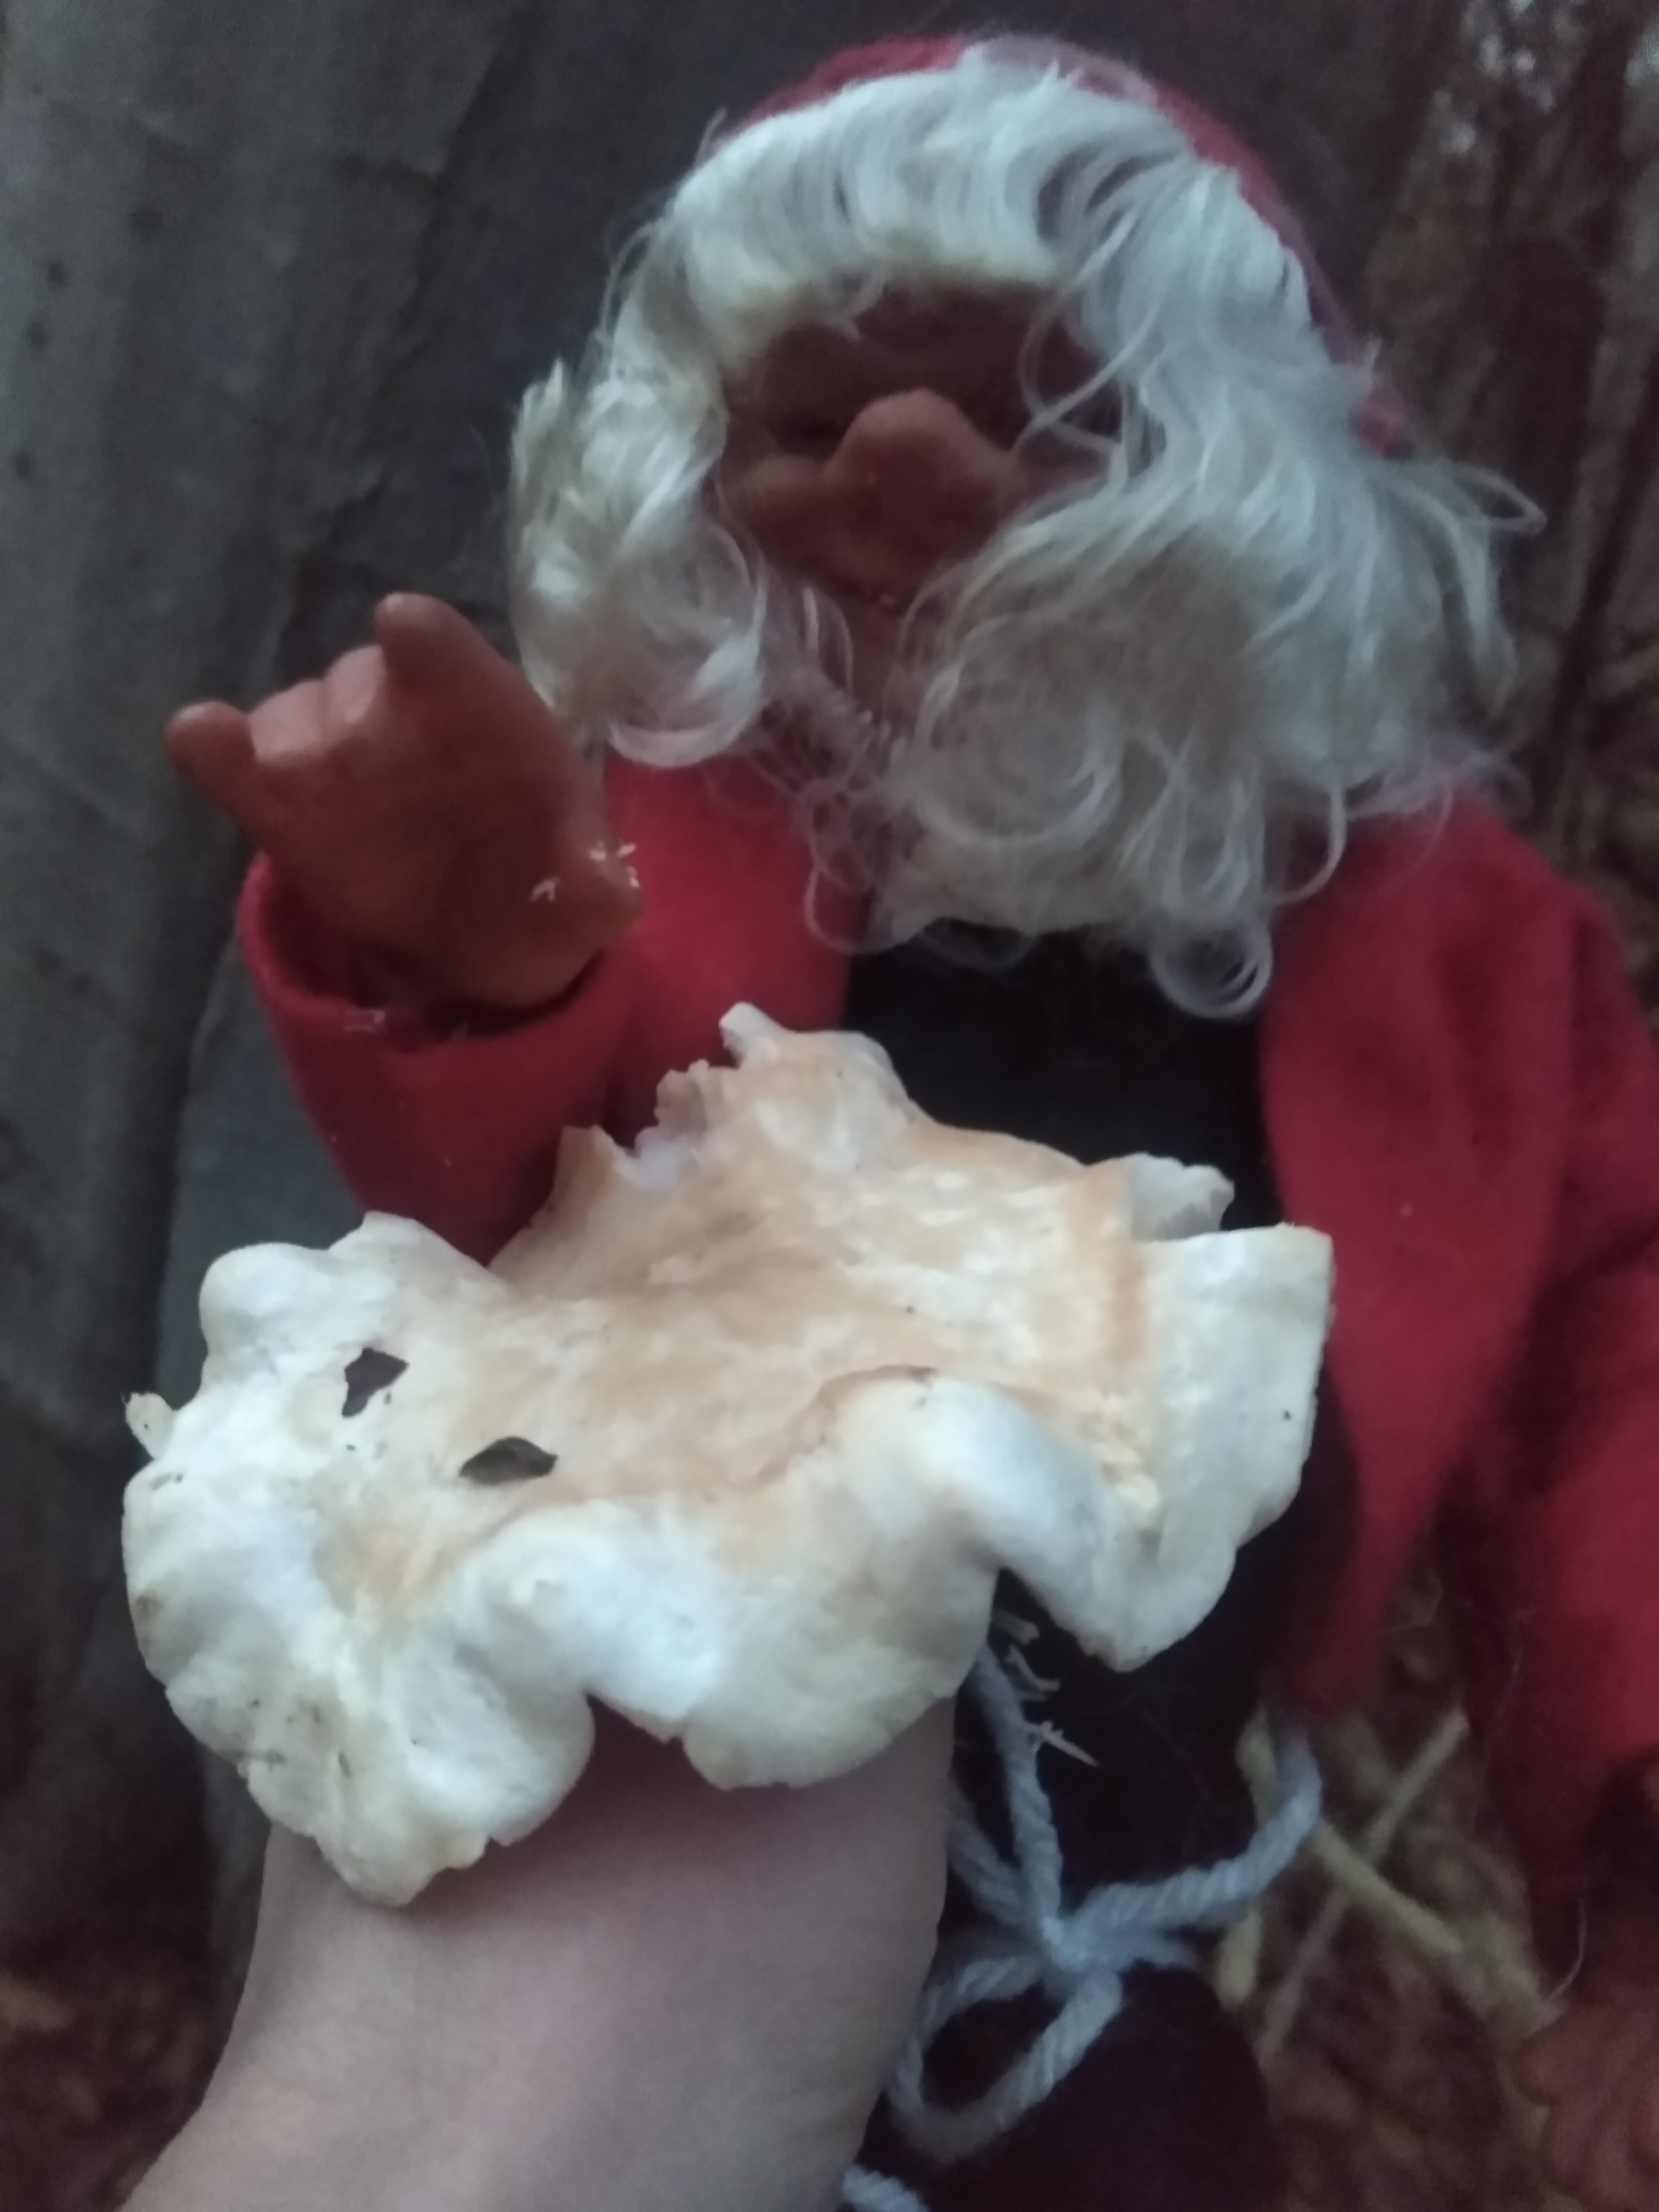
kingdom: Fungi
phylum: Basidiomycota
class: Agaricomycetes
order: Cantharellales
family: Hydnaceae
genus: Hydnum
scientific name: Hydnum repandum
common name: almindelig pigsvamp
